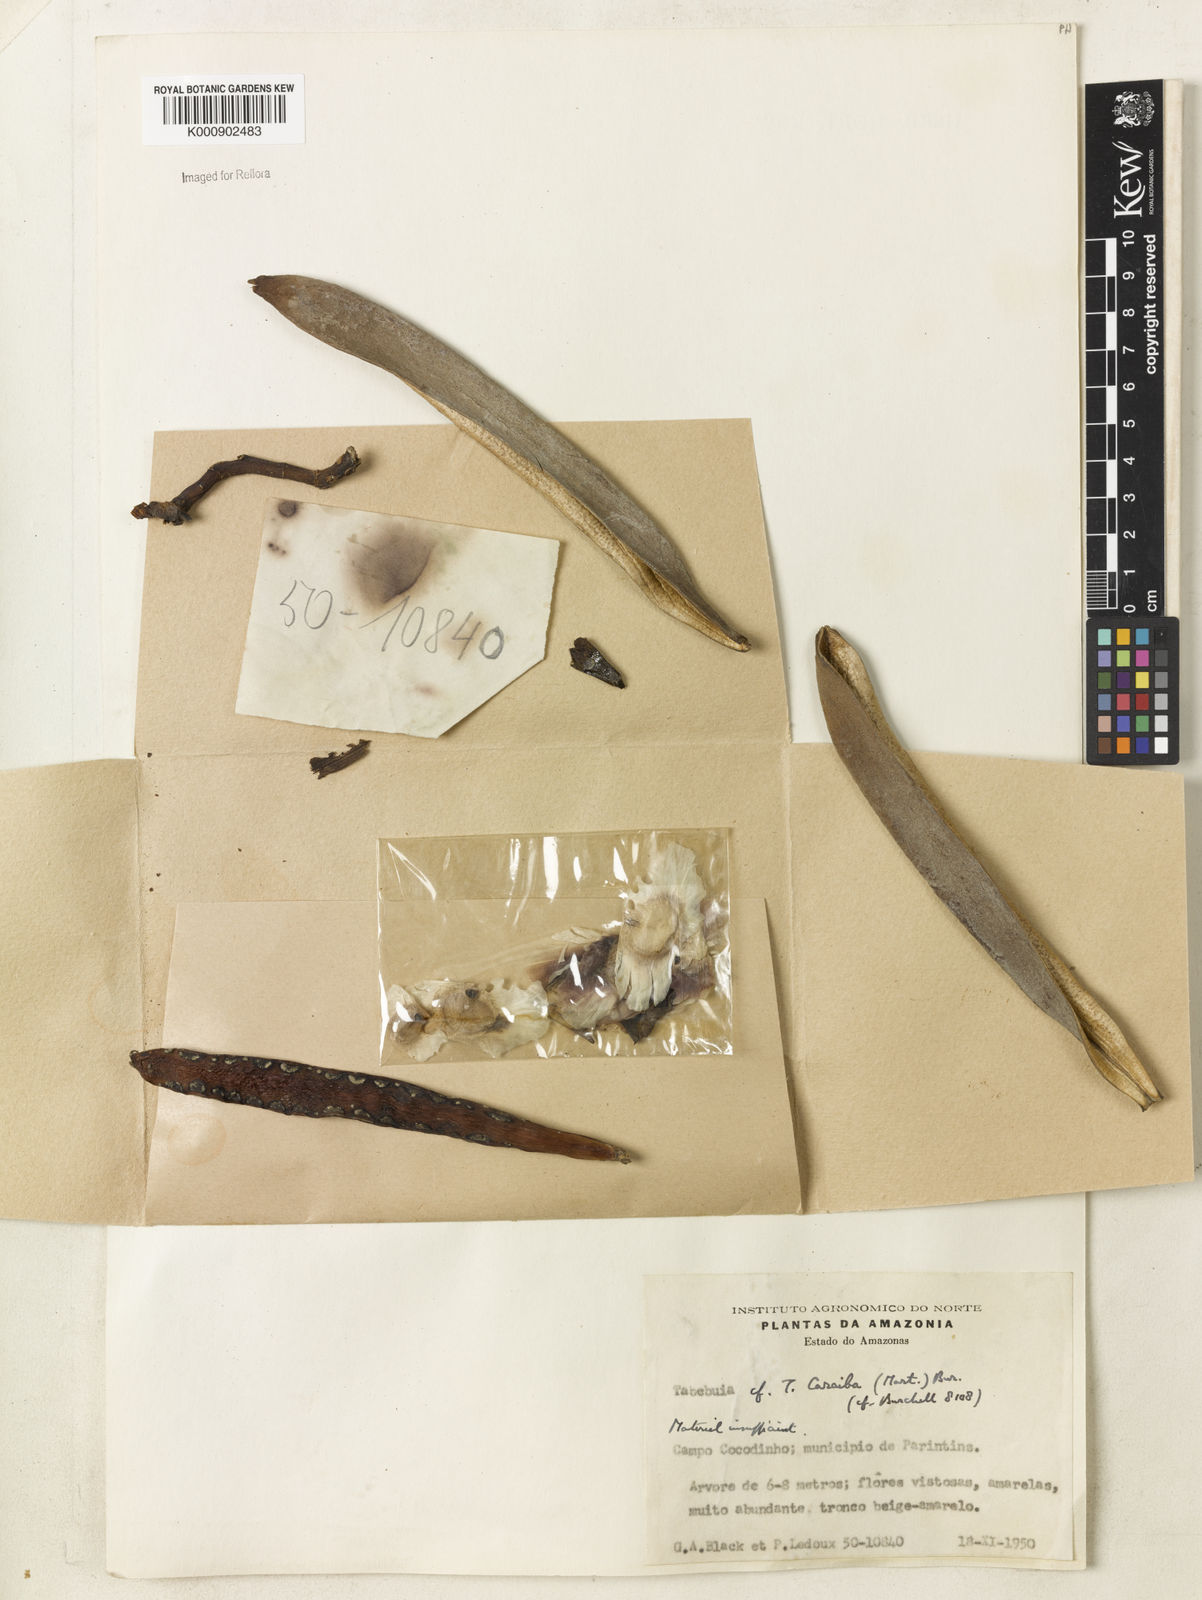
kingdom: Plantae
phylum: Tracheophyta
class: Magnoliopsida
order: Lamiales
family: Bignoniaceae
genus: Tabebuia
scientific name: Tabebuia aurea
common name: Caribbean trumpet-tree
